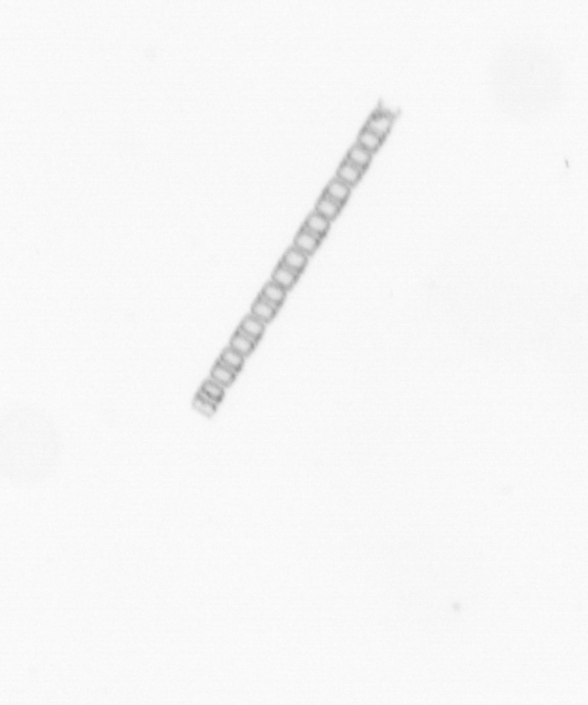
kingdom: Chromista
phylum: Ochrophyta
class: Bacillariophyceae
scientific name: Bacillariophyceae
